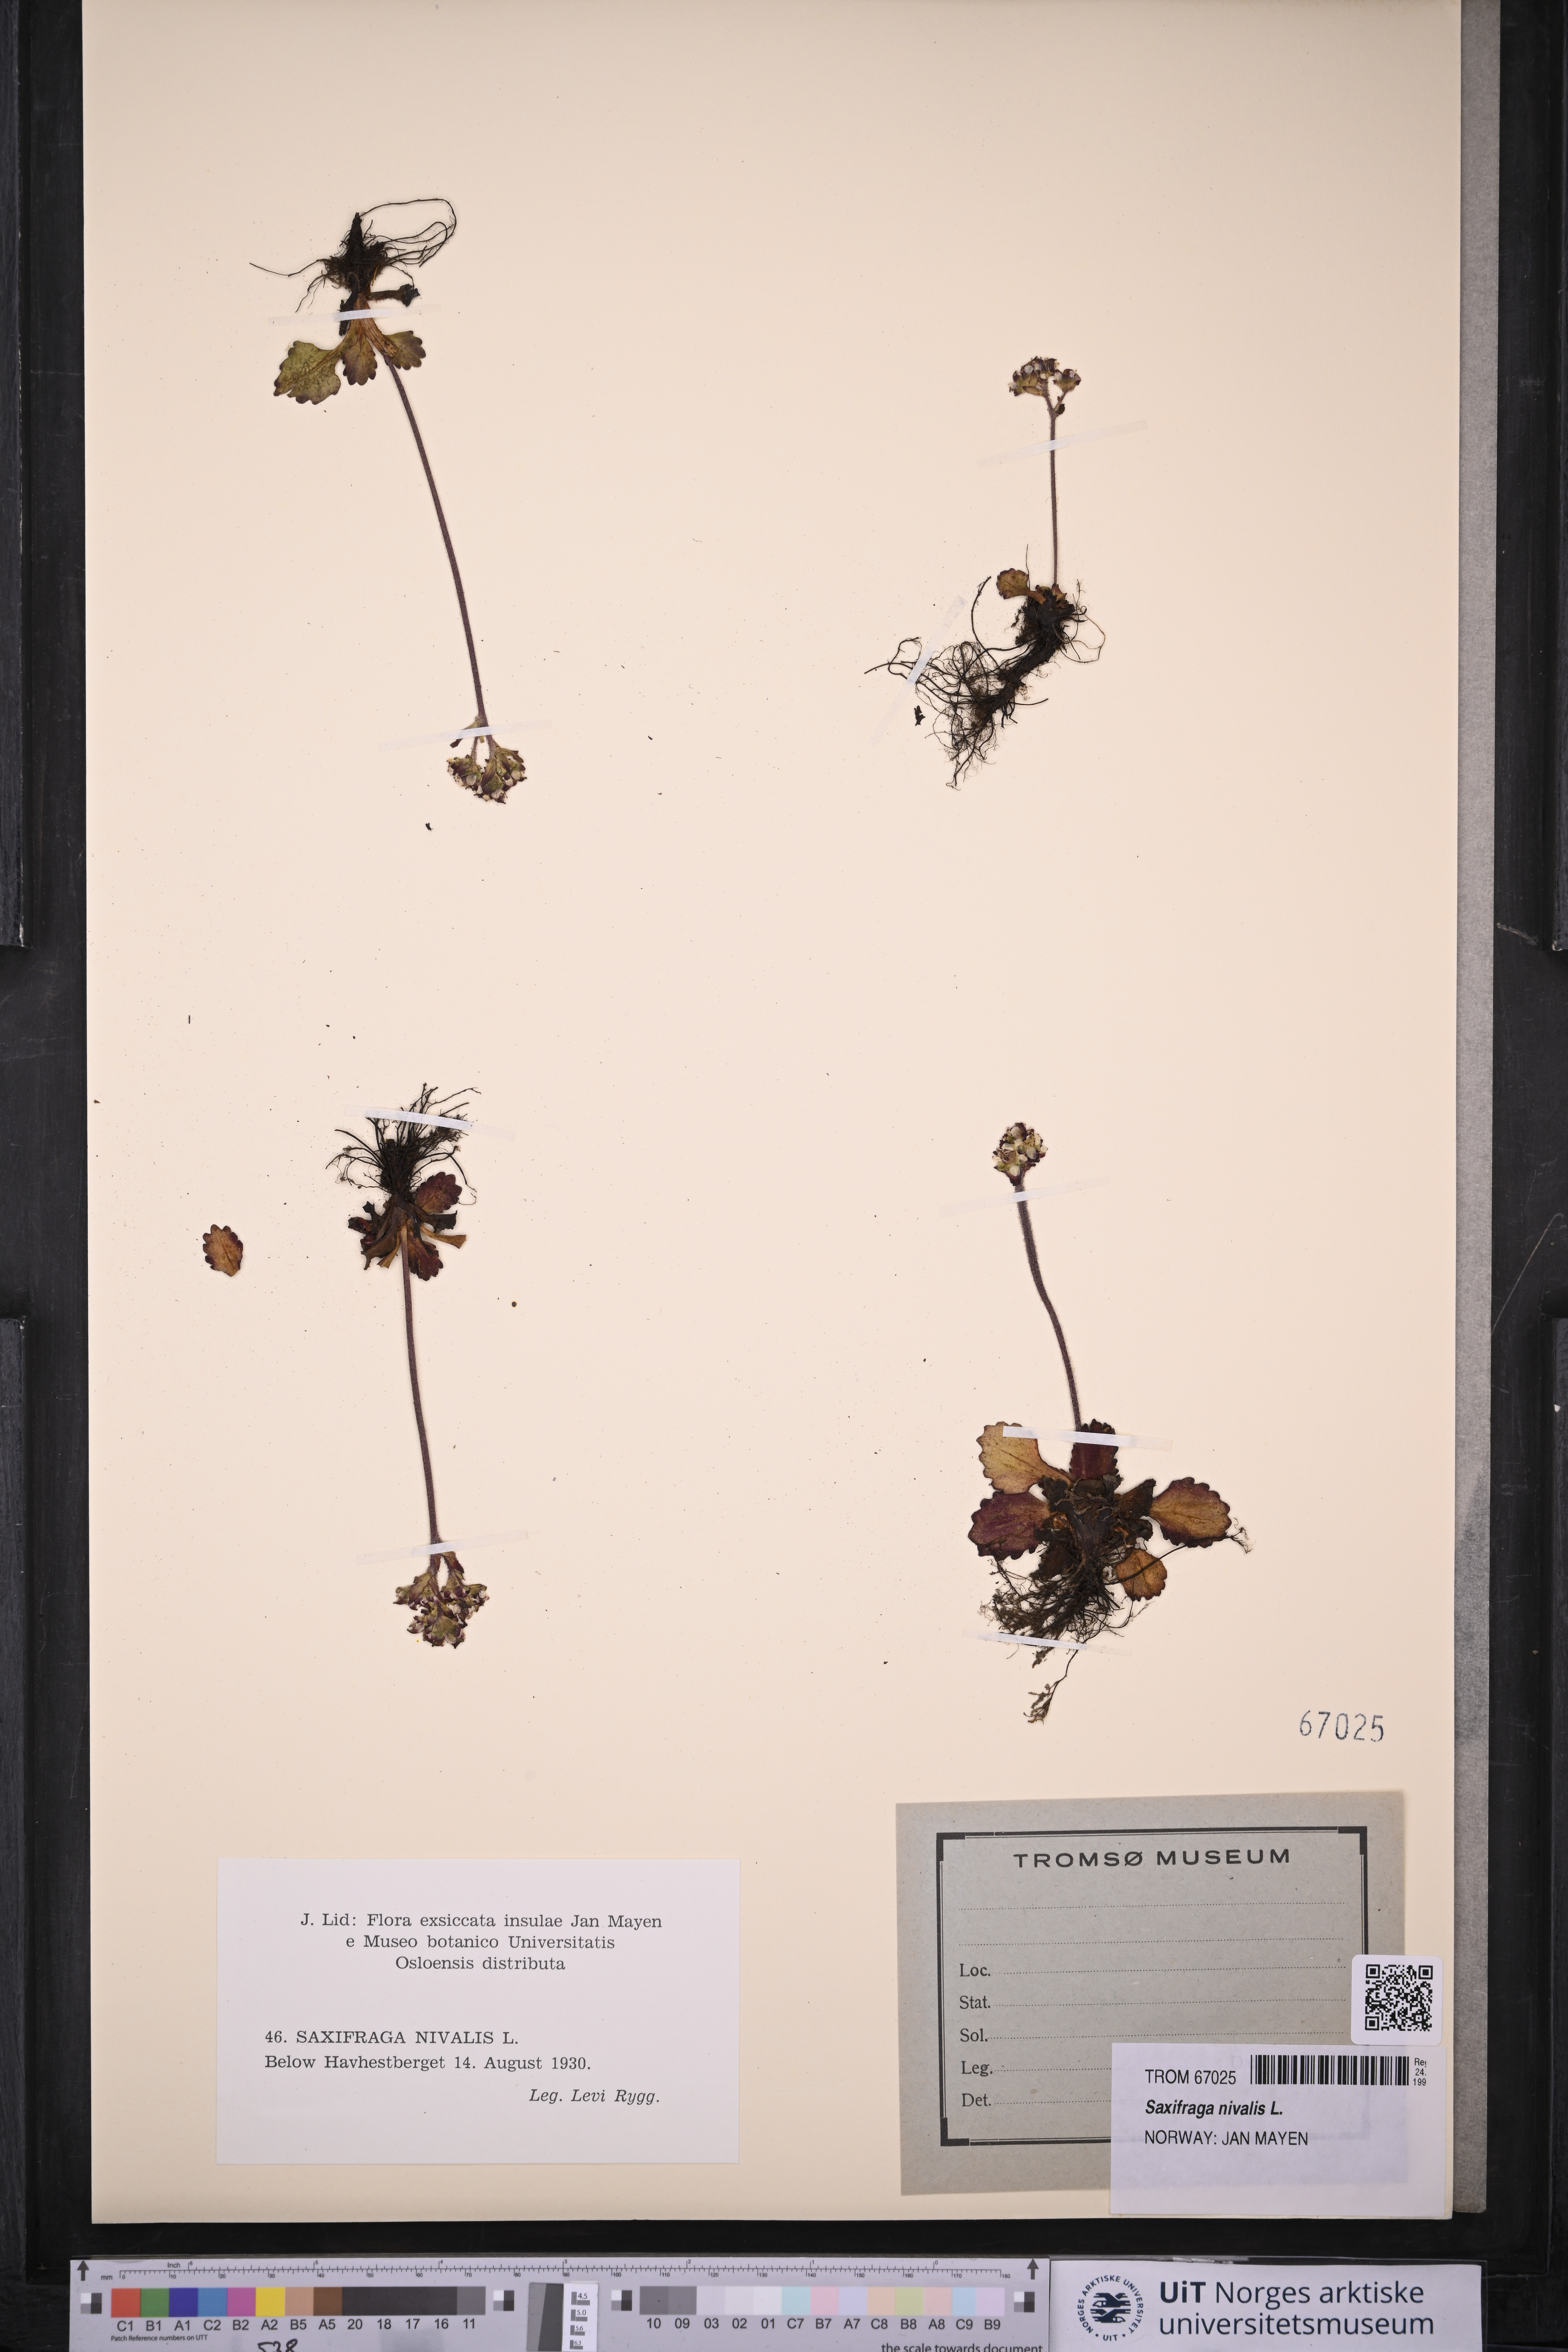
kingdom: Plantae
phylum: Tracheophyta
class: Magnoliopsida
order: Saxifragales
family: Saxifragaceae
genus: Micranthes
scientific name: Micranthes nivalis
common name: Alpine saxifrage
